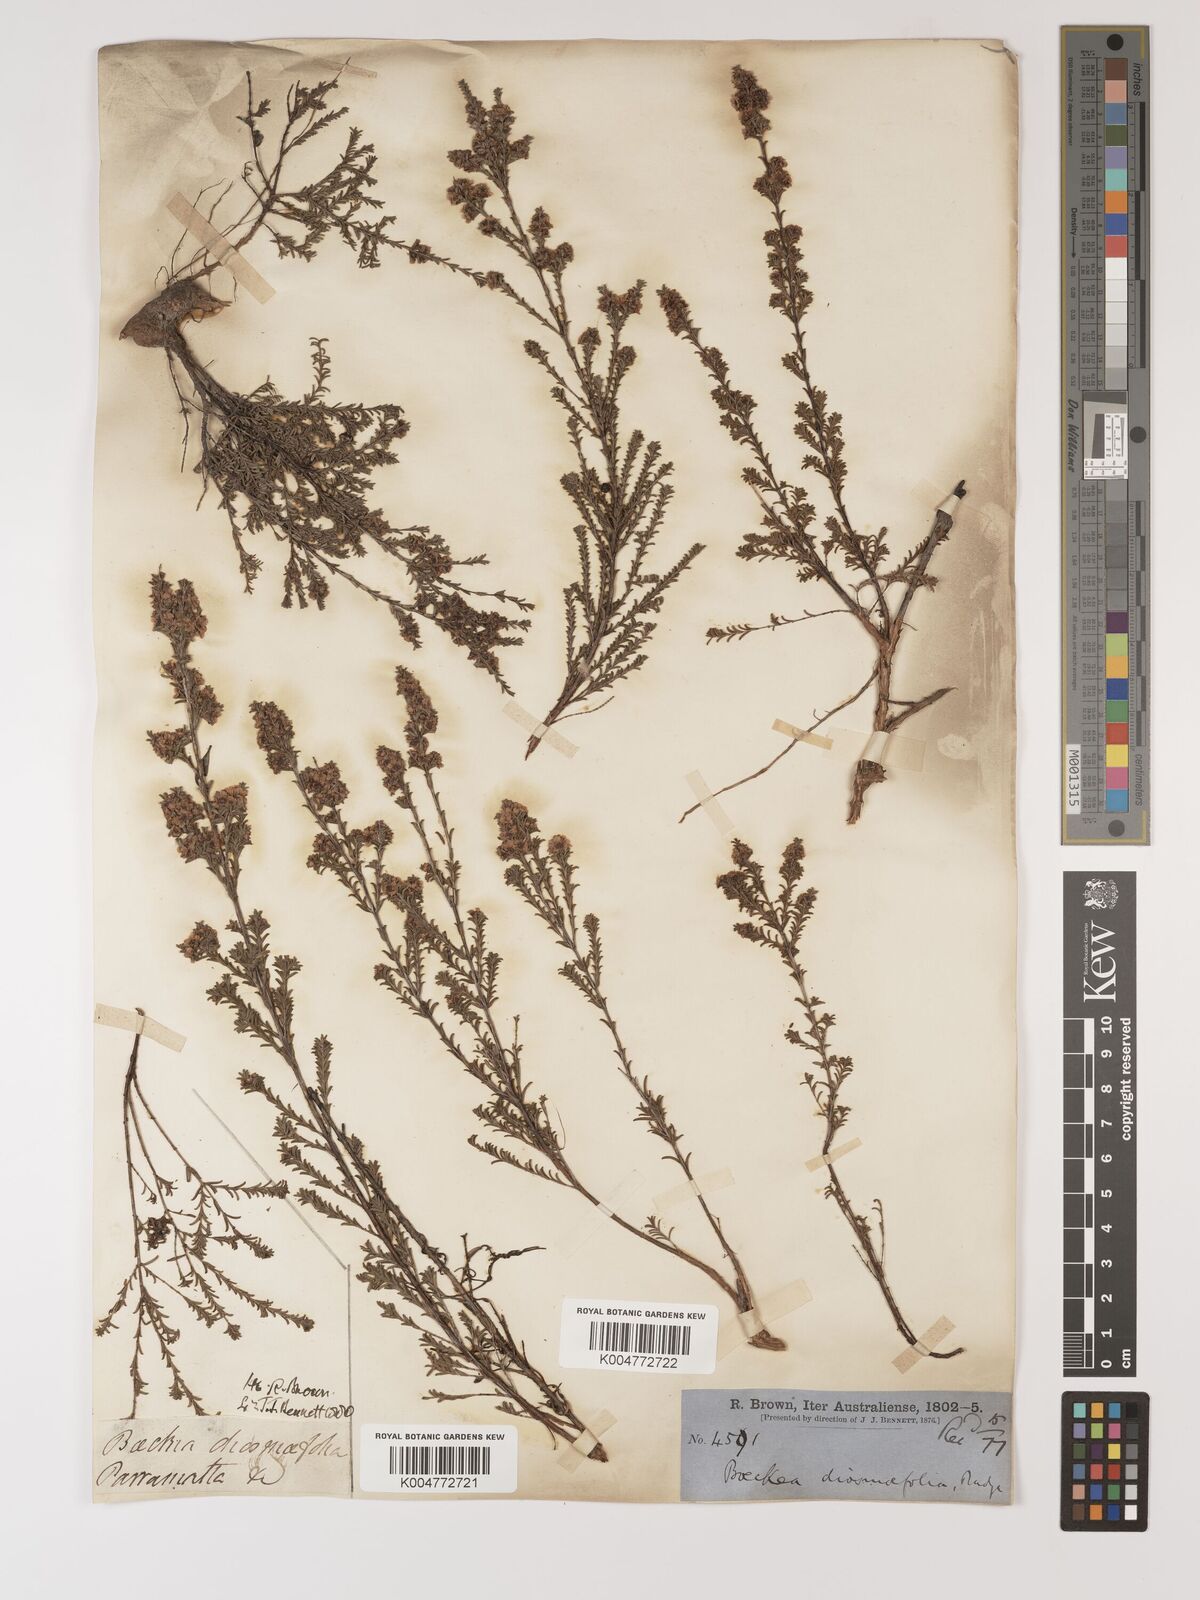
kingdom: Plantae
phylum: Tracheophyta
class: Magnoliopsida
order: Myrtales
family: Myrtaceae
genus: Baeckea
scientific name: Baeckea diosmifolia
